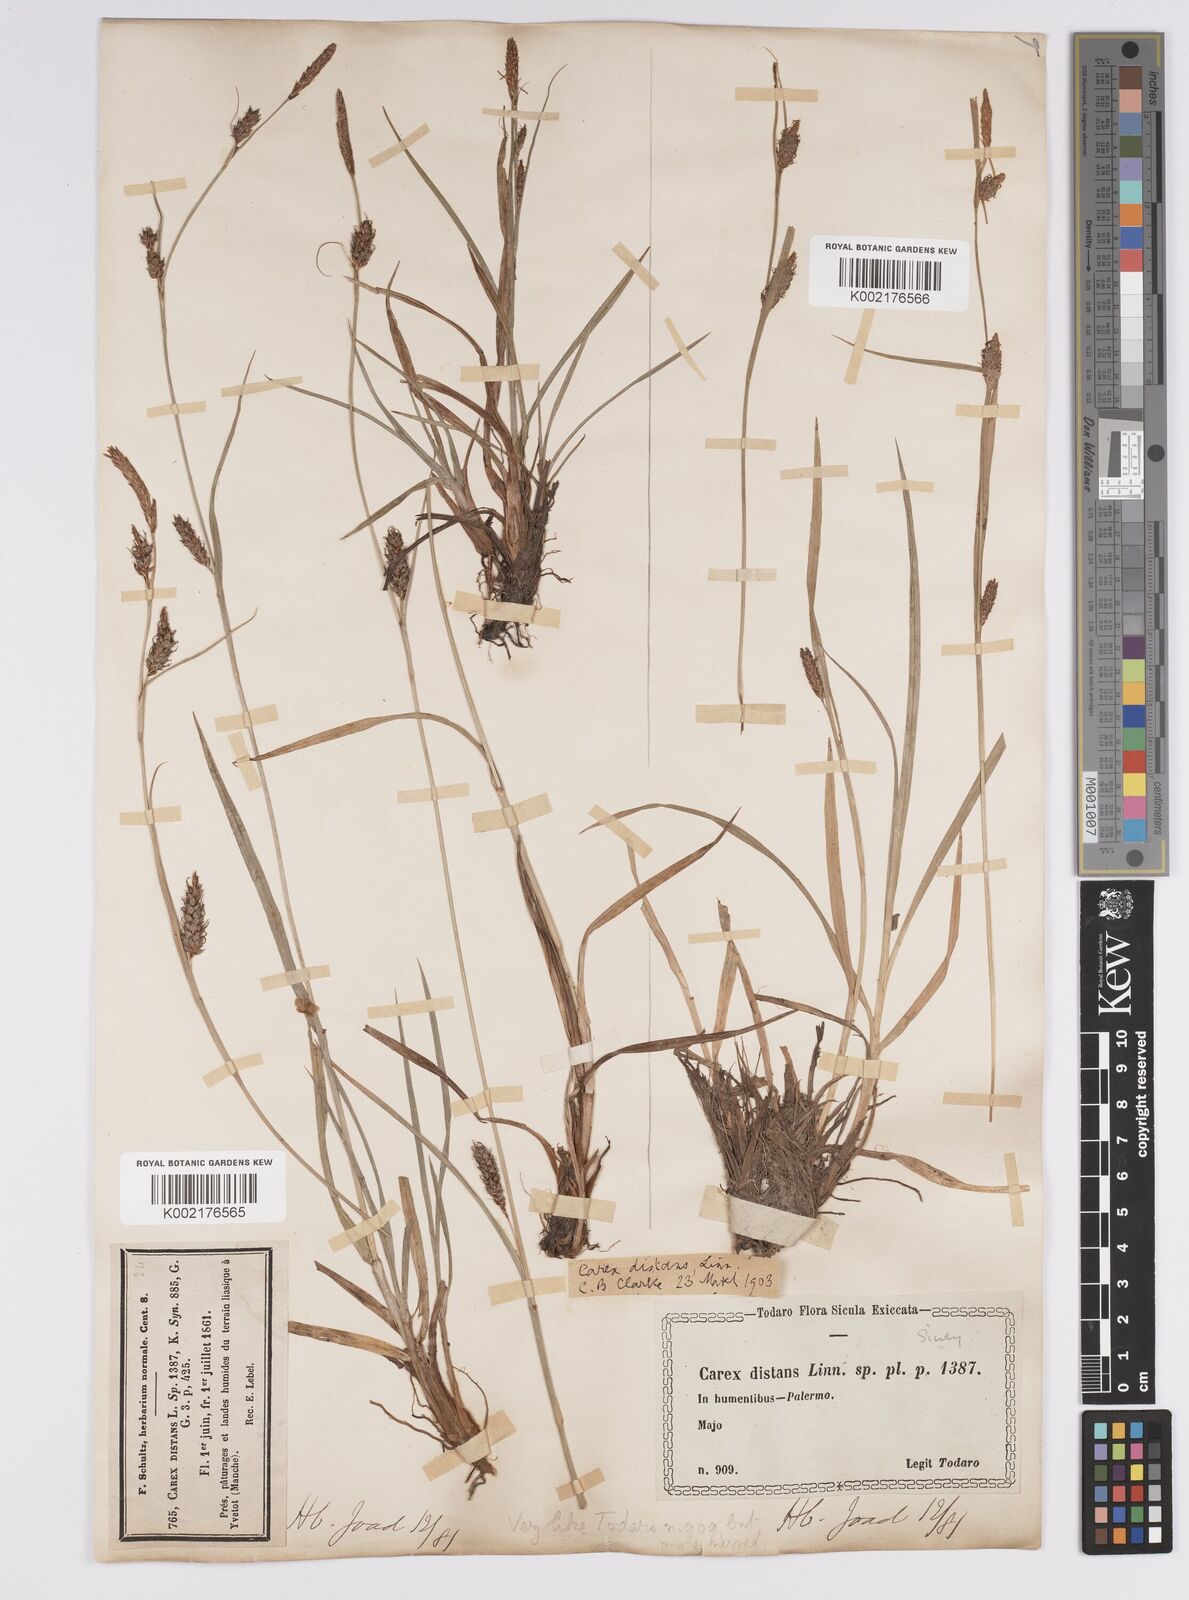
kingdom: Plantae
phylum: Tracheophyta
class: Liliopsida
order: Poales
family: Cyperaceae
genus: Carex
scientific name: Carex distans
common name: Distant sedge
